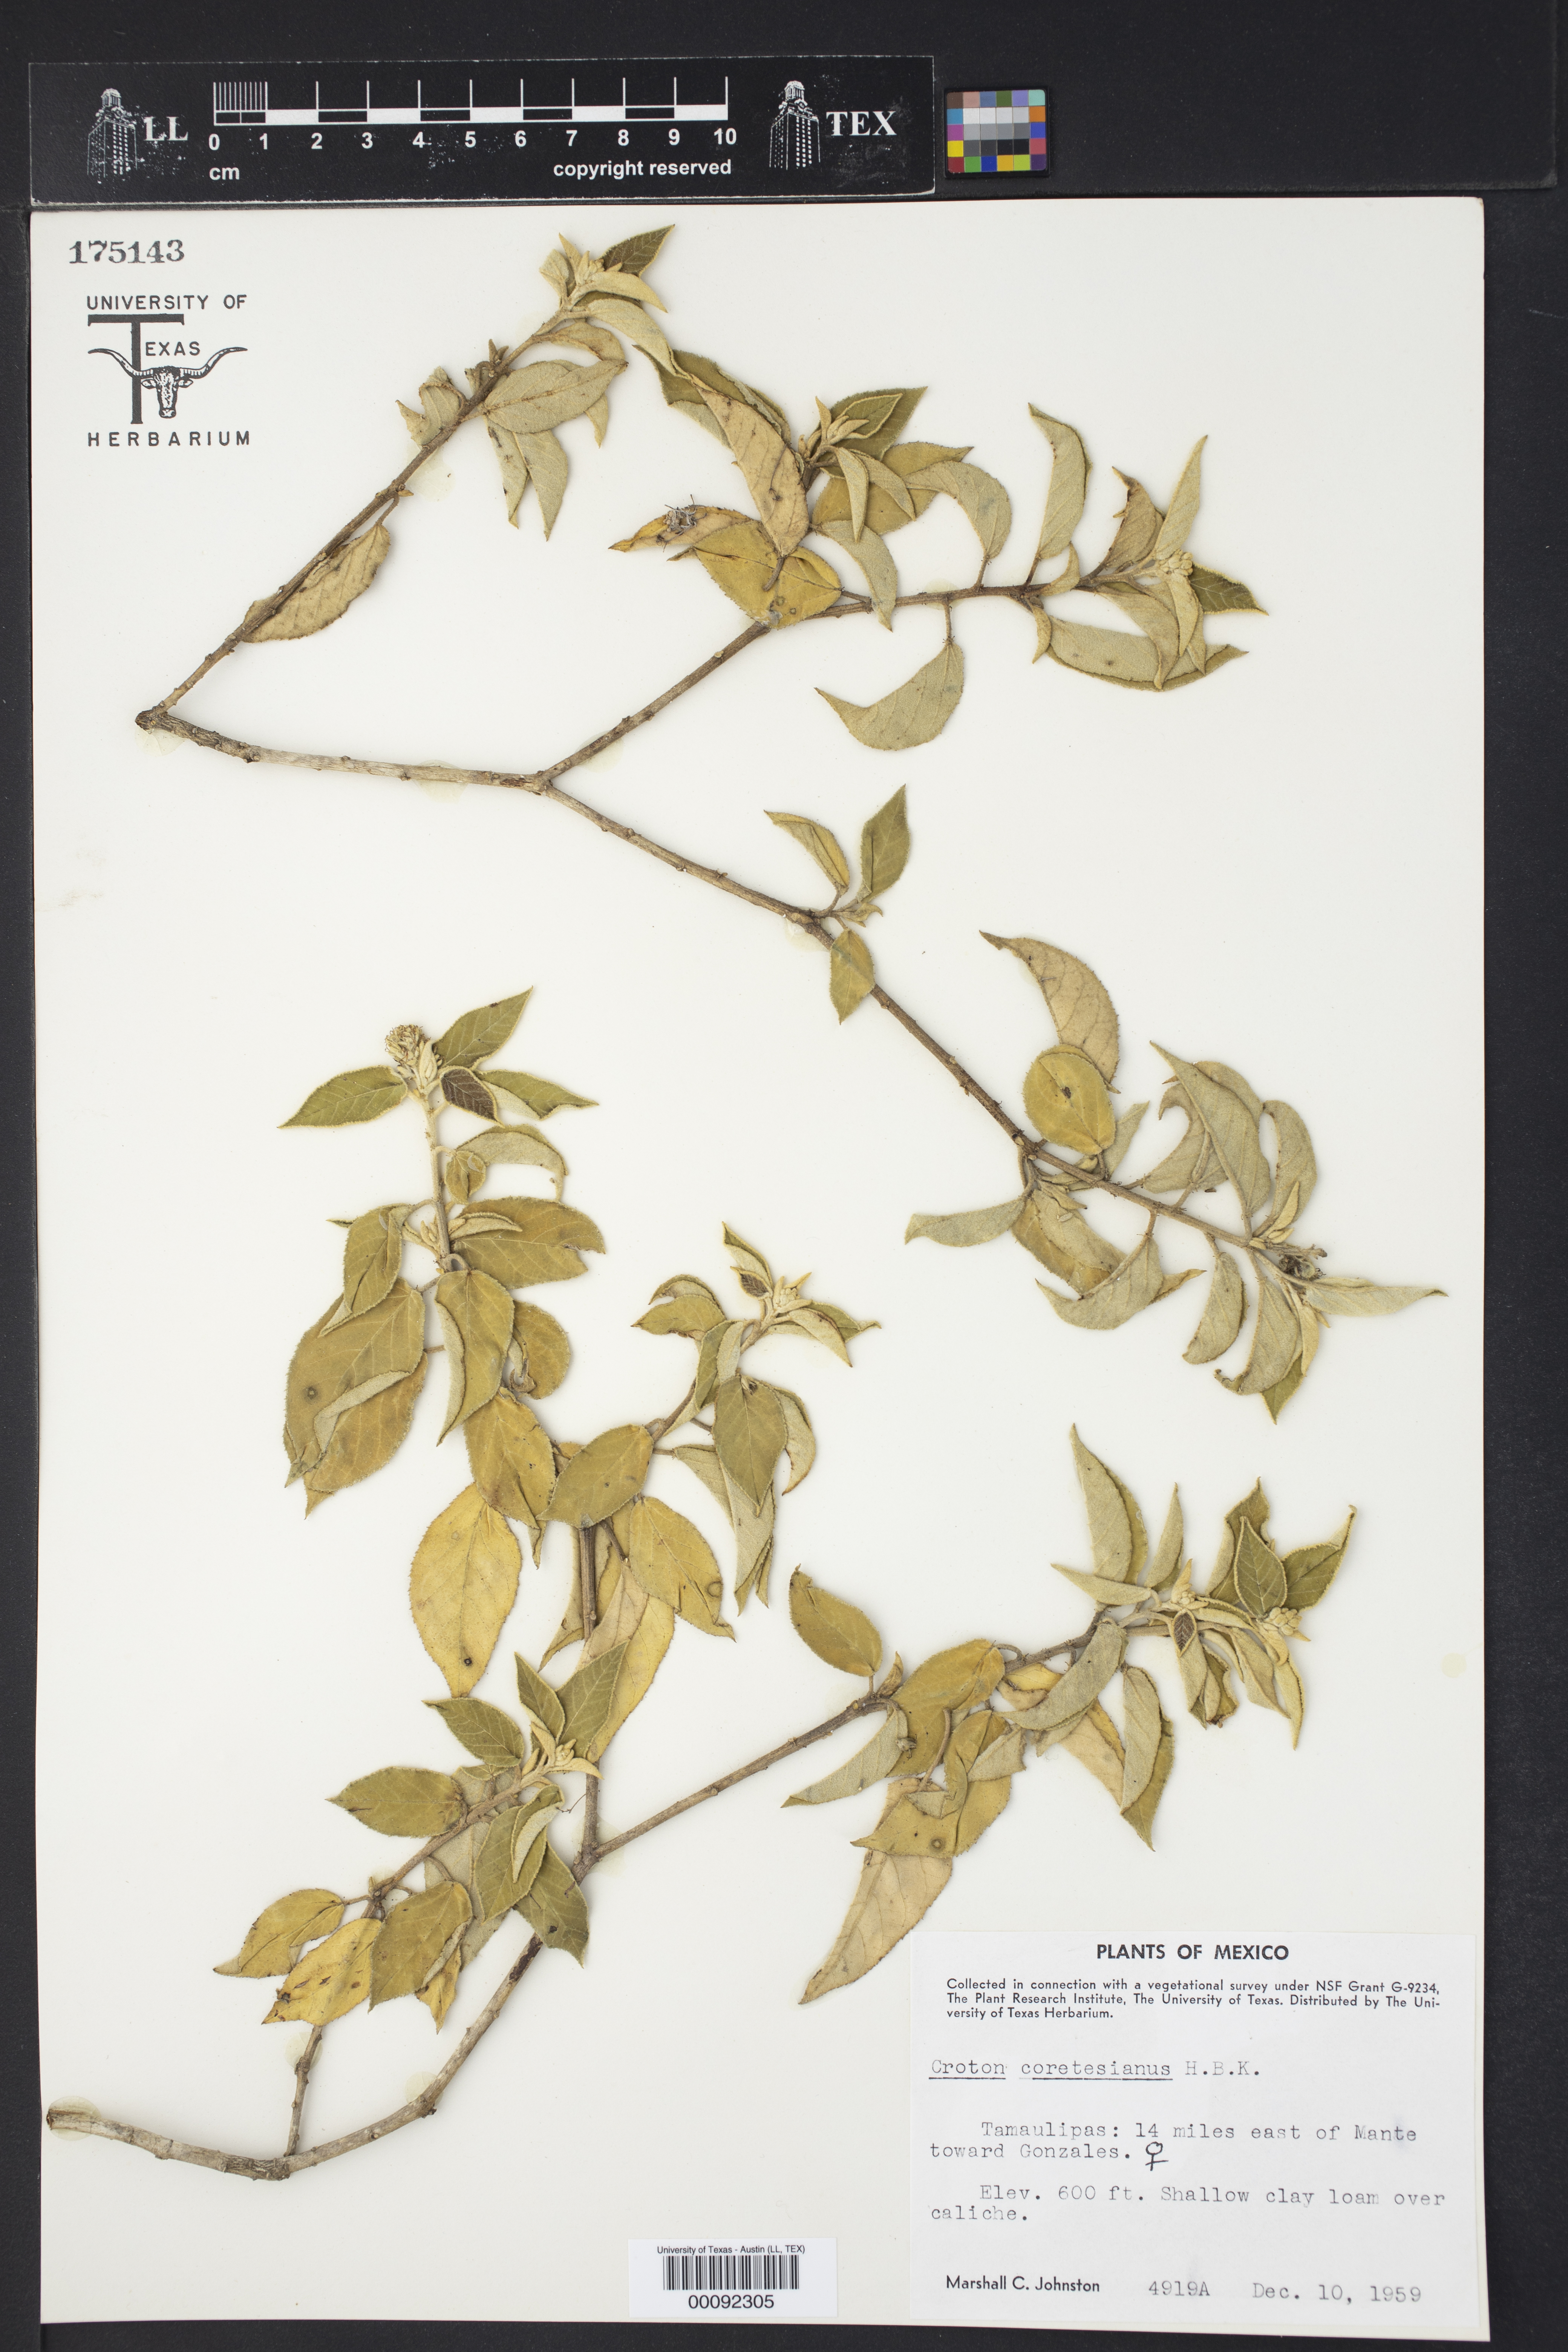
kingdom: Plantae
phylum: Tracheophyta
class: Magnoliopsida
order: Malpighiales
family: Euphorbiaceae
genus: Croton
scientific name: Croton cortesianus
